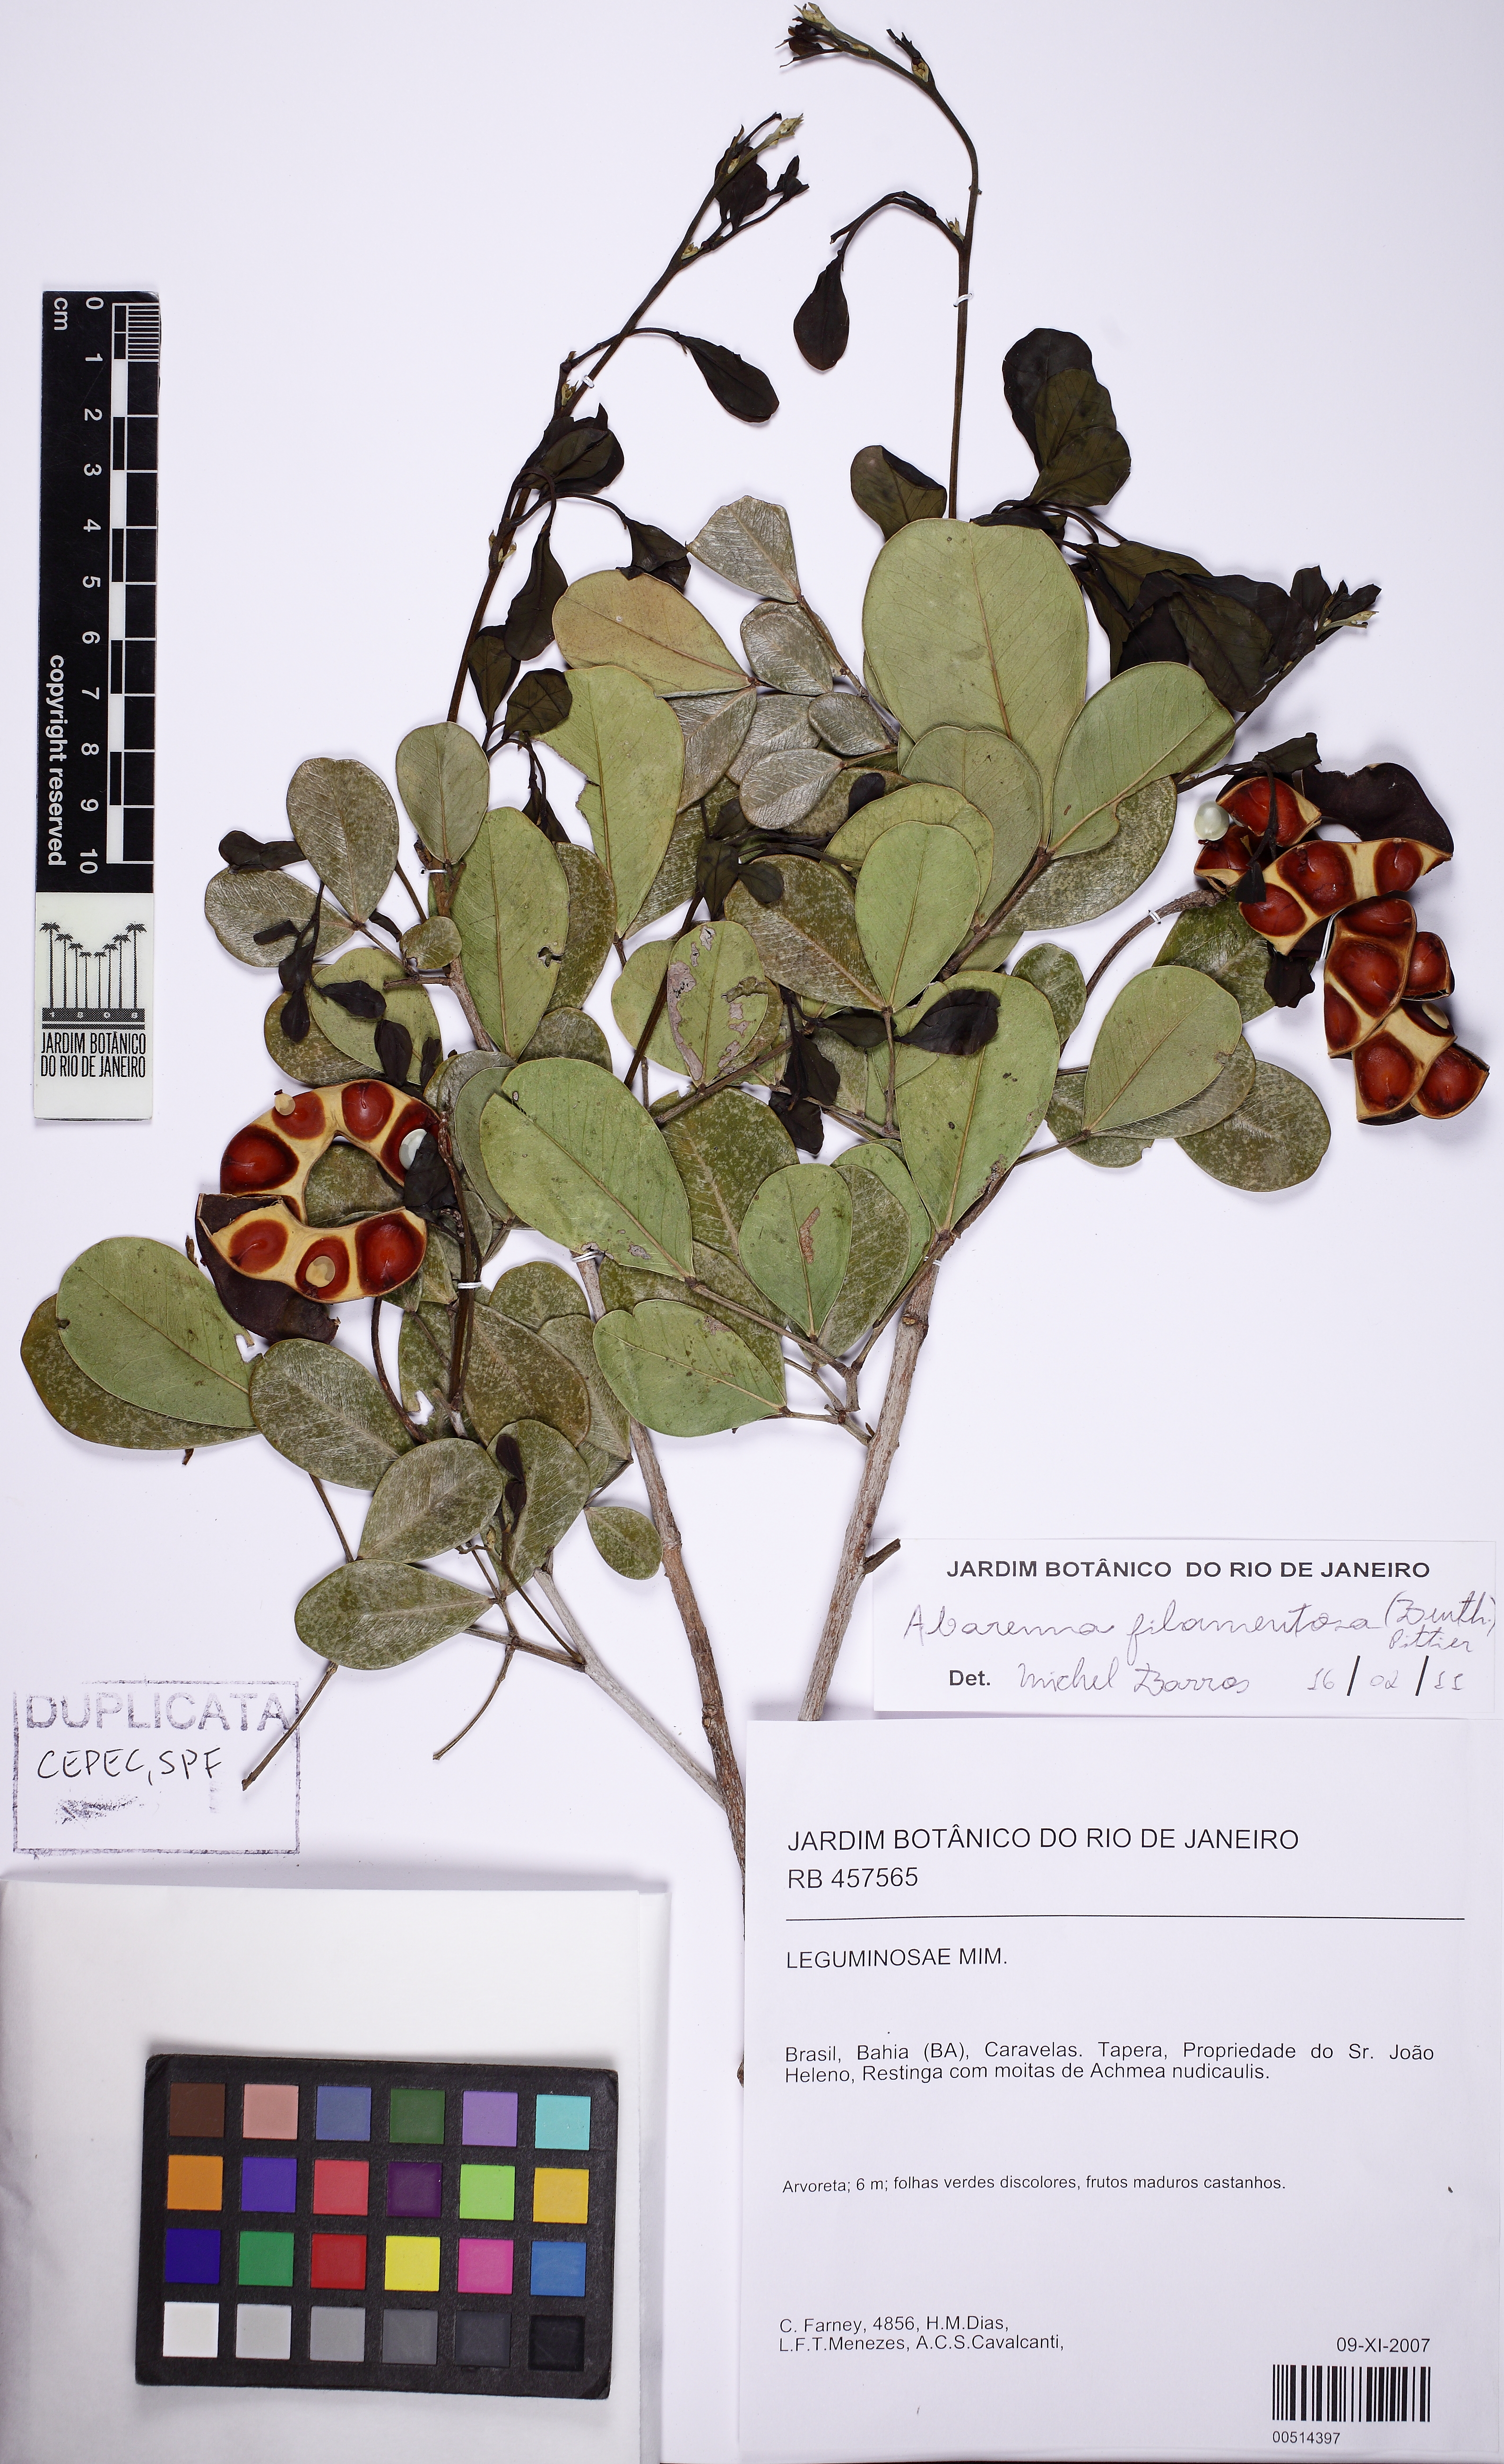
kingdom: Plantae
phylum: Tracheophyta
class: Magnoliopsida
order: Fabales
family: Fabaceae
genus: Jupunba
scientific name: Jupunba filamentosa
